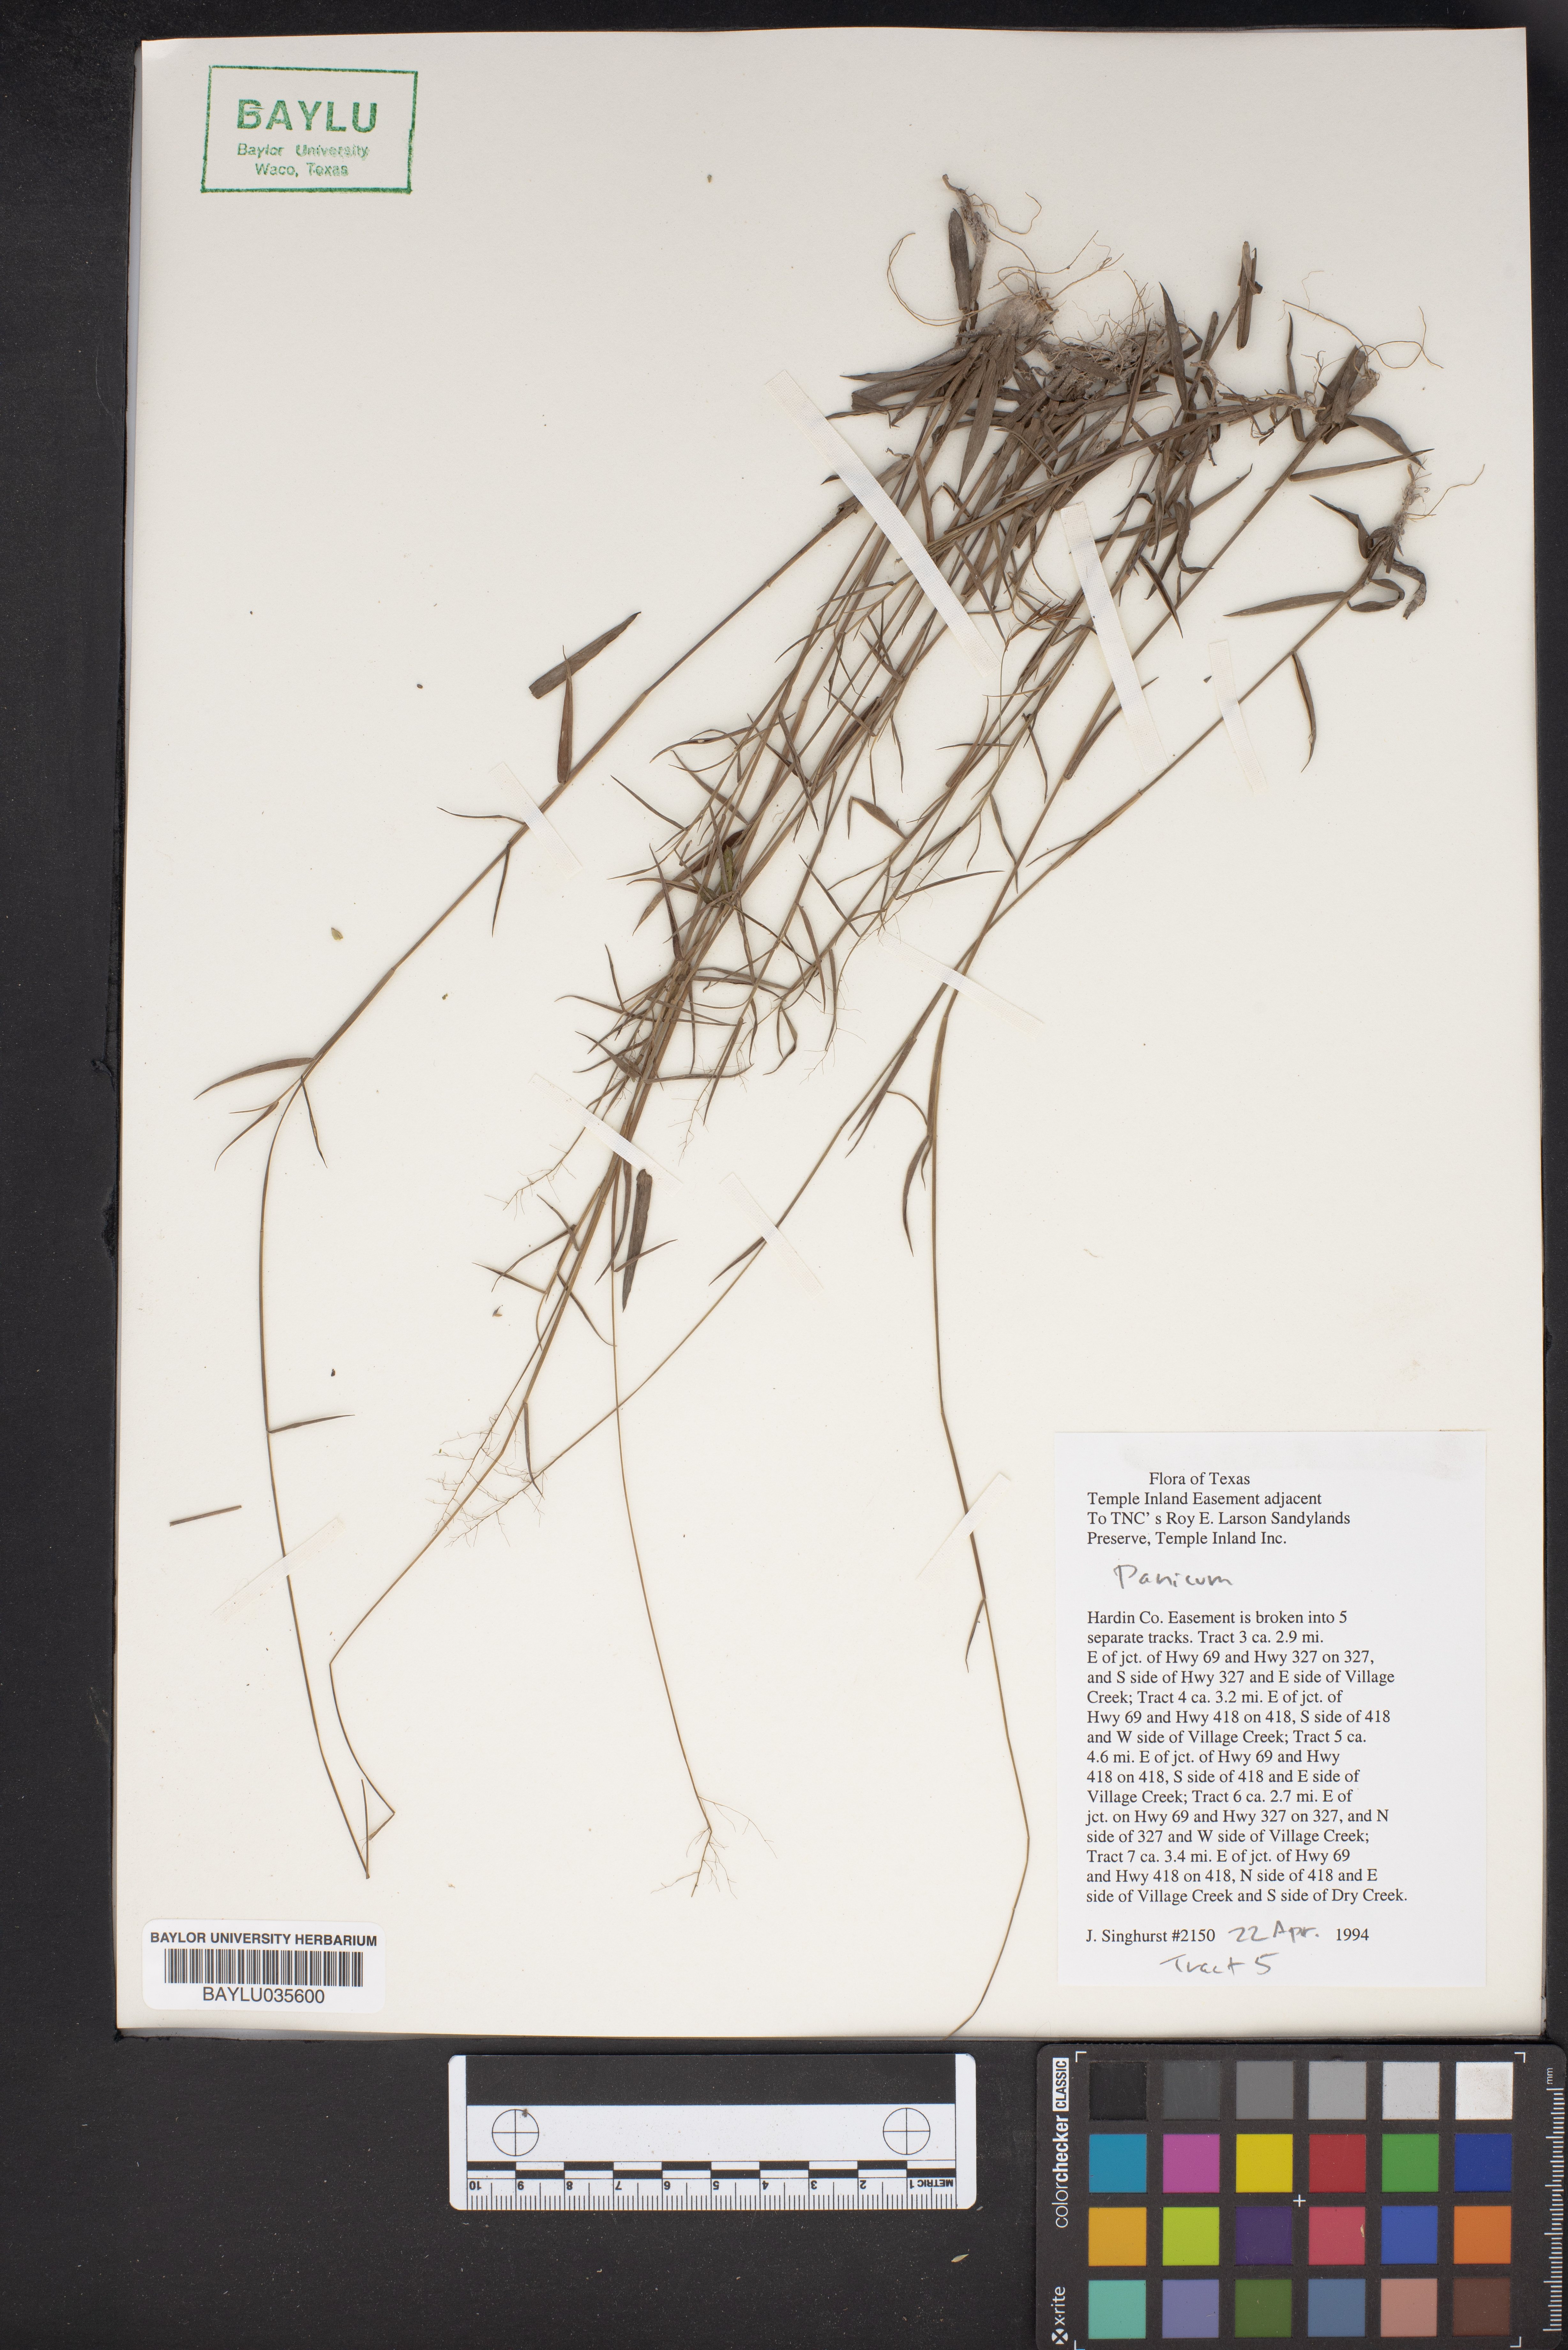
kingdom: Plantae
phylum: Tracheophyta
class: Liliopsida
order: Poales
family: Poaceae
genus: Panicum
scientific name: Panicum
